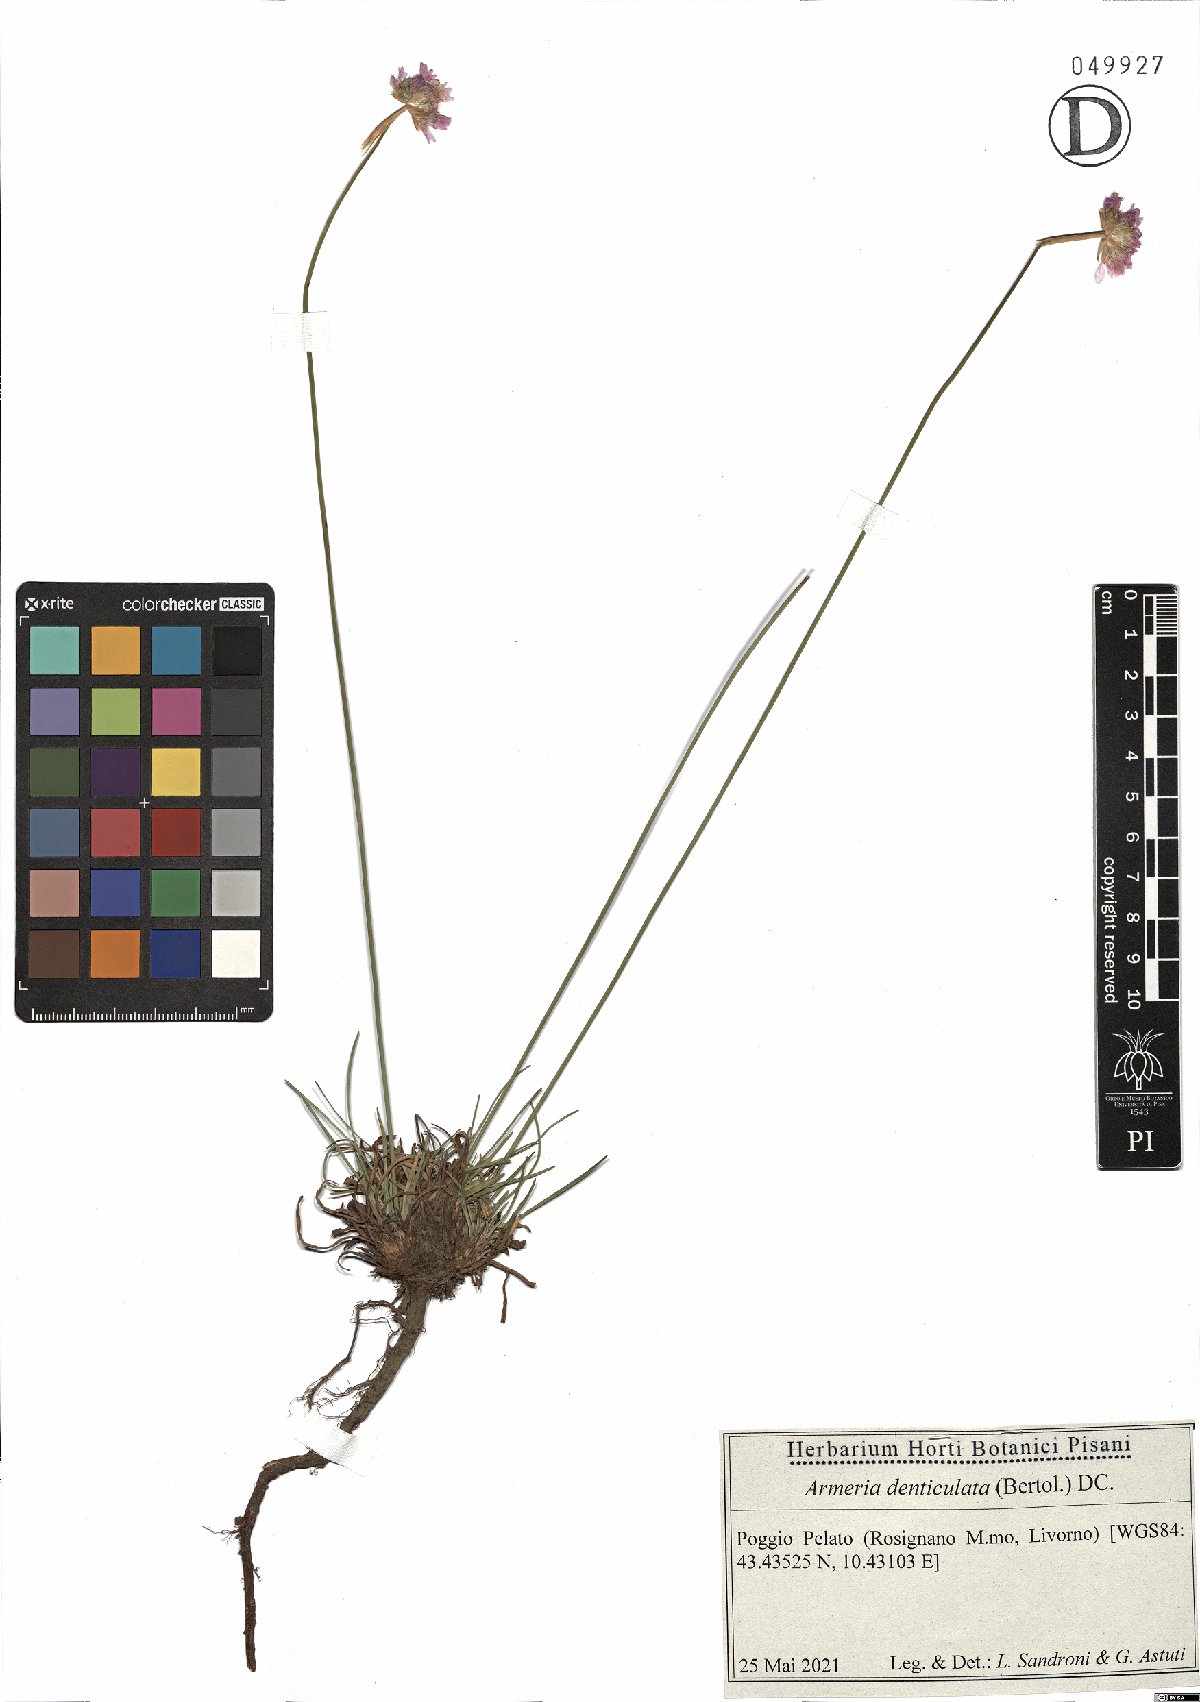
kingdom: Plantae
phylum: Tracheophyta
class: Magnoliopsida
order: Caryophyllales
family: Plumbaginaceae
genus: Armeria
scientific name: Armeria denticulata
